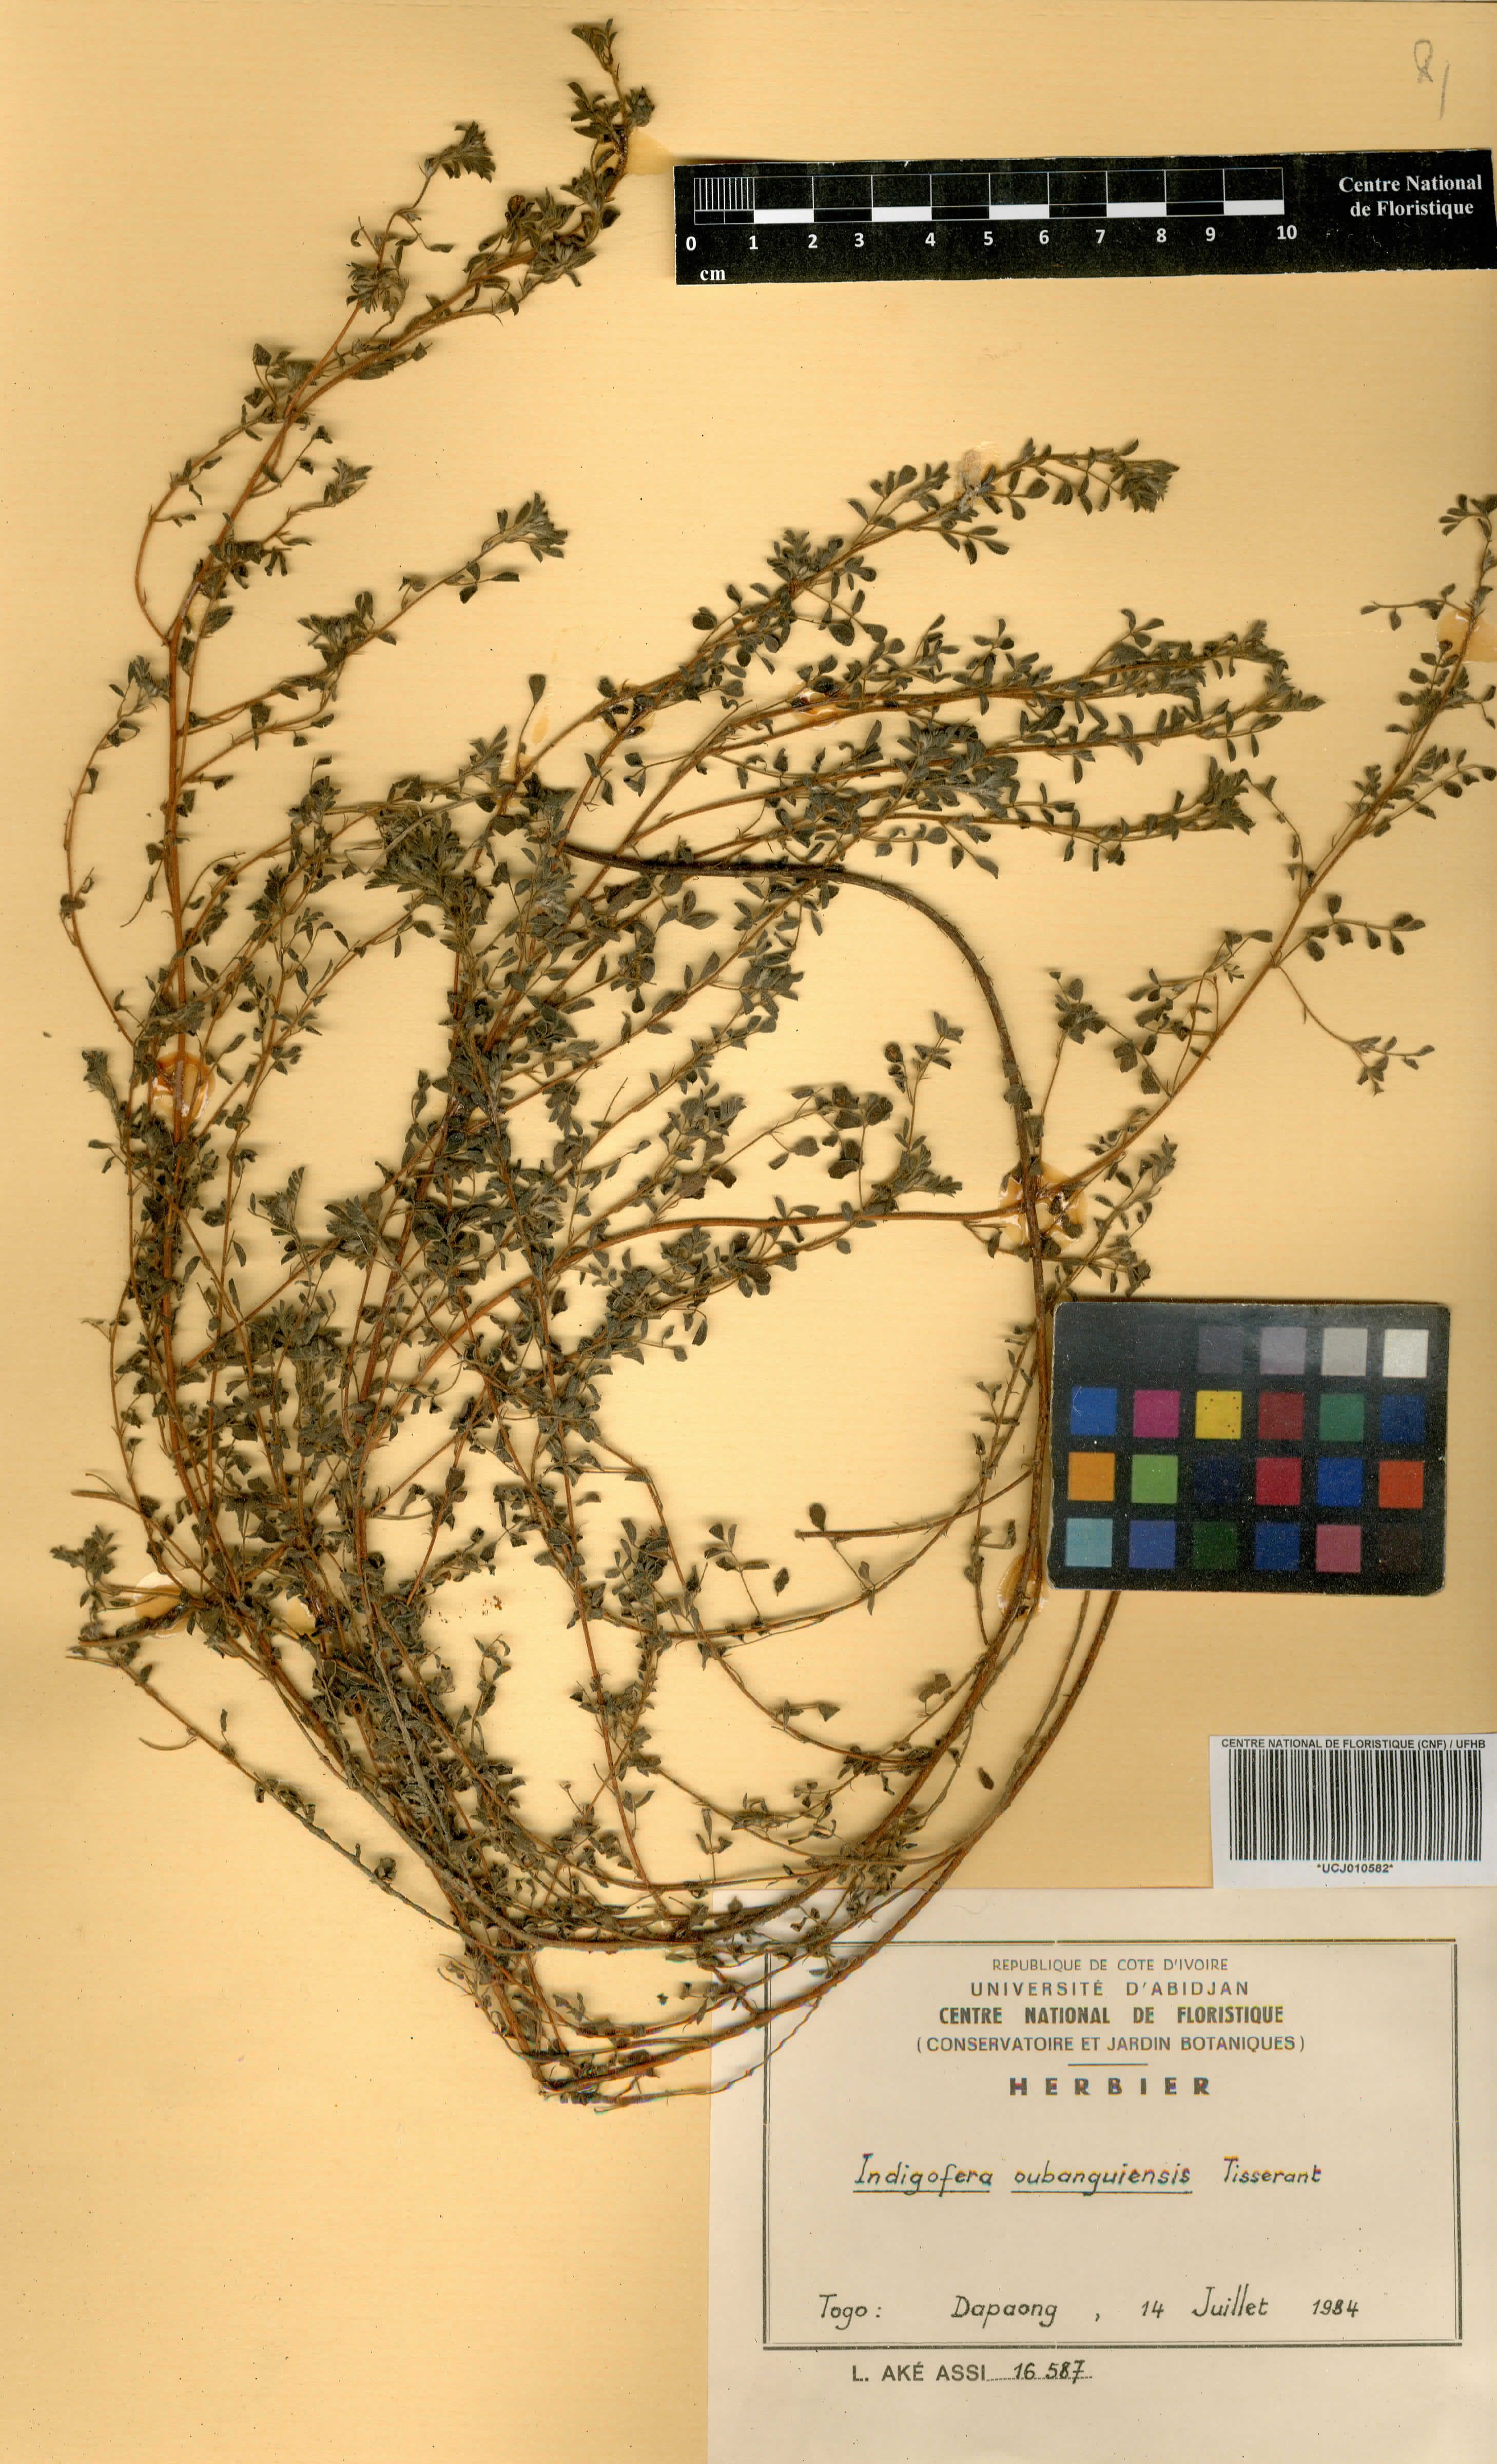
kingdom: Plantae
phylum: Tracheophyta
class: Magnoliopsida
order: Fabales
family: Fabaceae
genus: Indigofera
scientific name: Indigofera oubanguiensis
